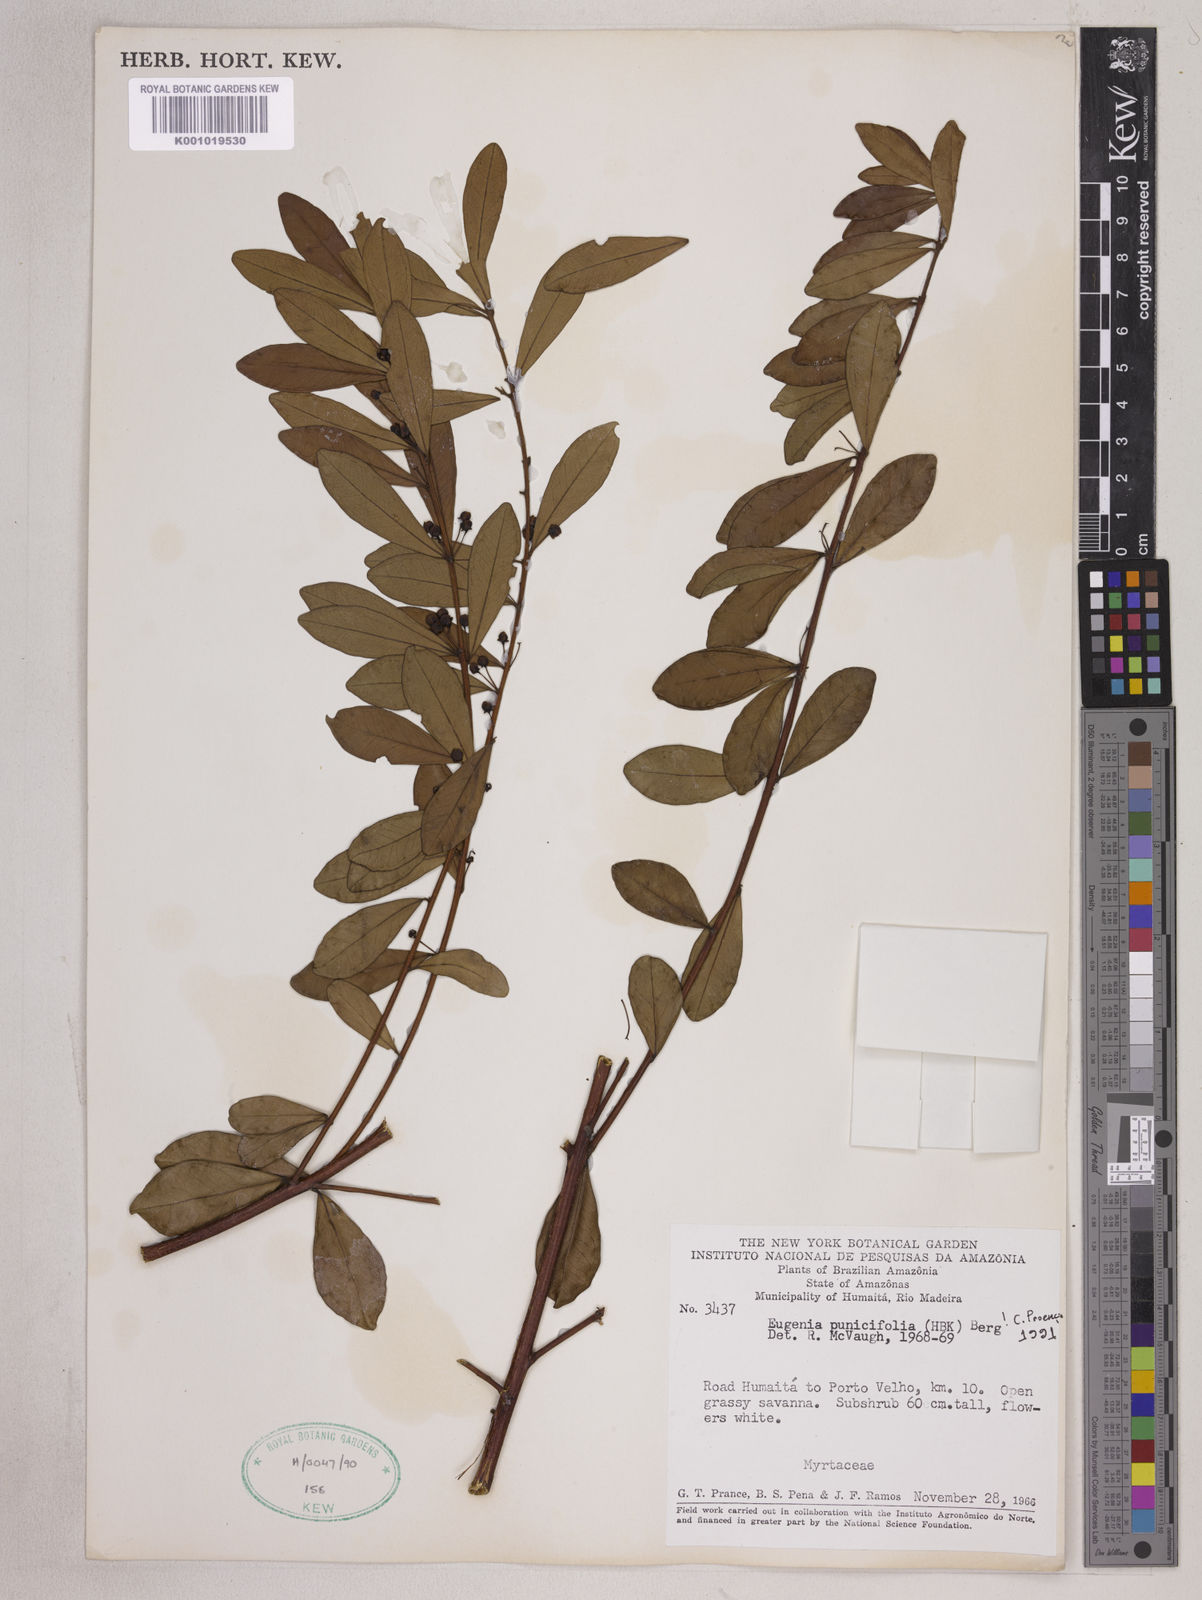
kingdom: Plantae
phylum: Tracheophyta
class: Magnoliopsida
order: Myrtales
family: Myrtaceae
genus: Eugenia
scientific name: Eugenia punicifolia
